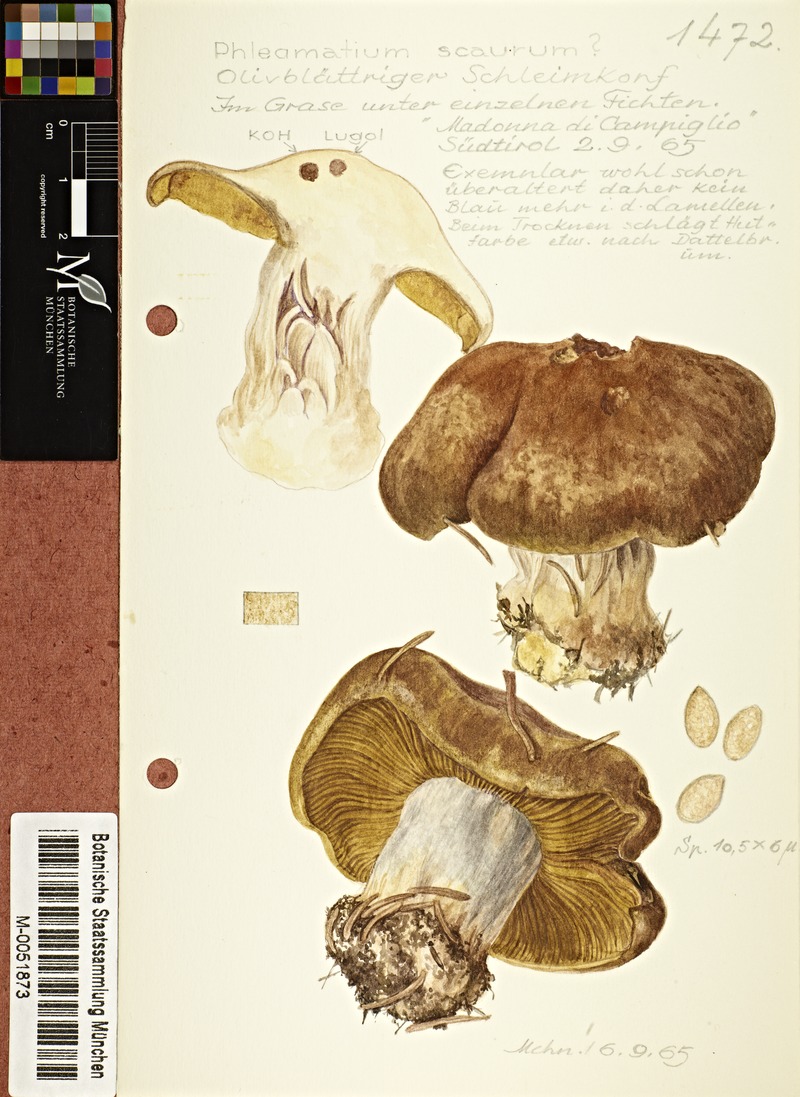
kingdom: Fungi
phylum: Basidiomycota
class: Agaricomycetes
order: Agaricales
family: Cortinariaceae
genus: Thaxterogaster
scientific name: Thaxterogaster scaurus
